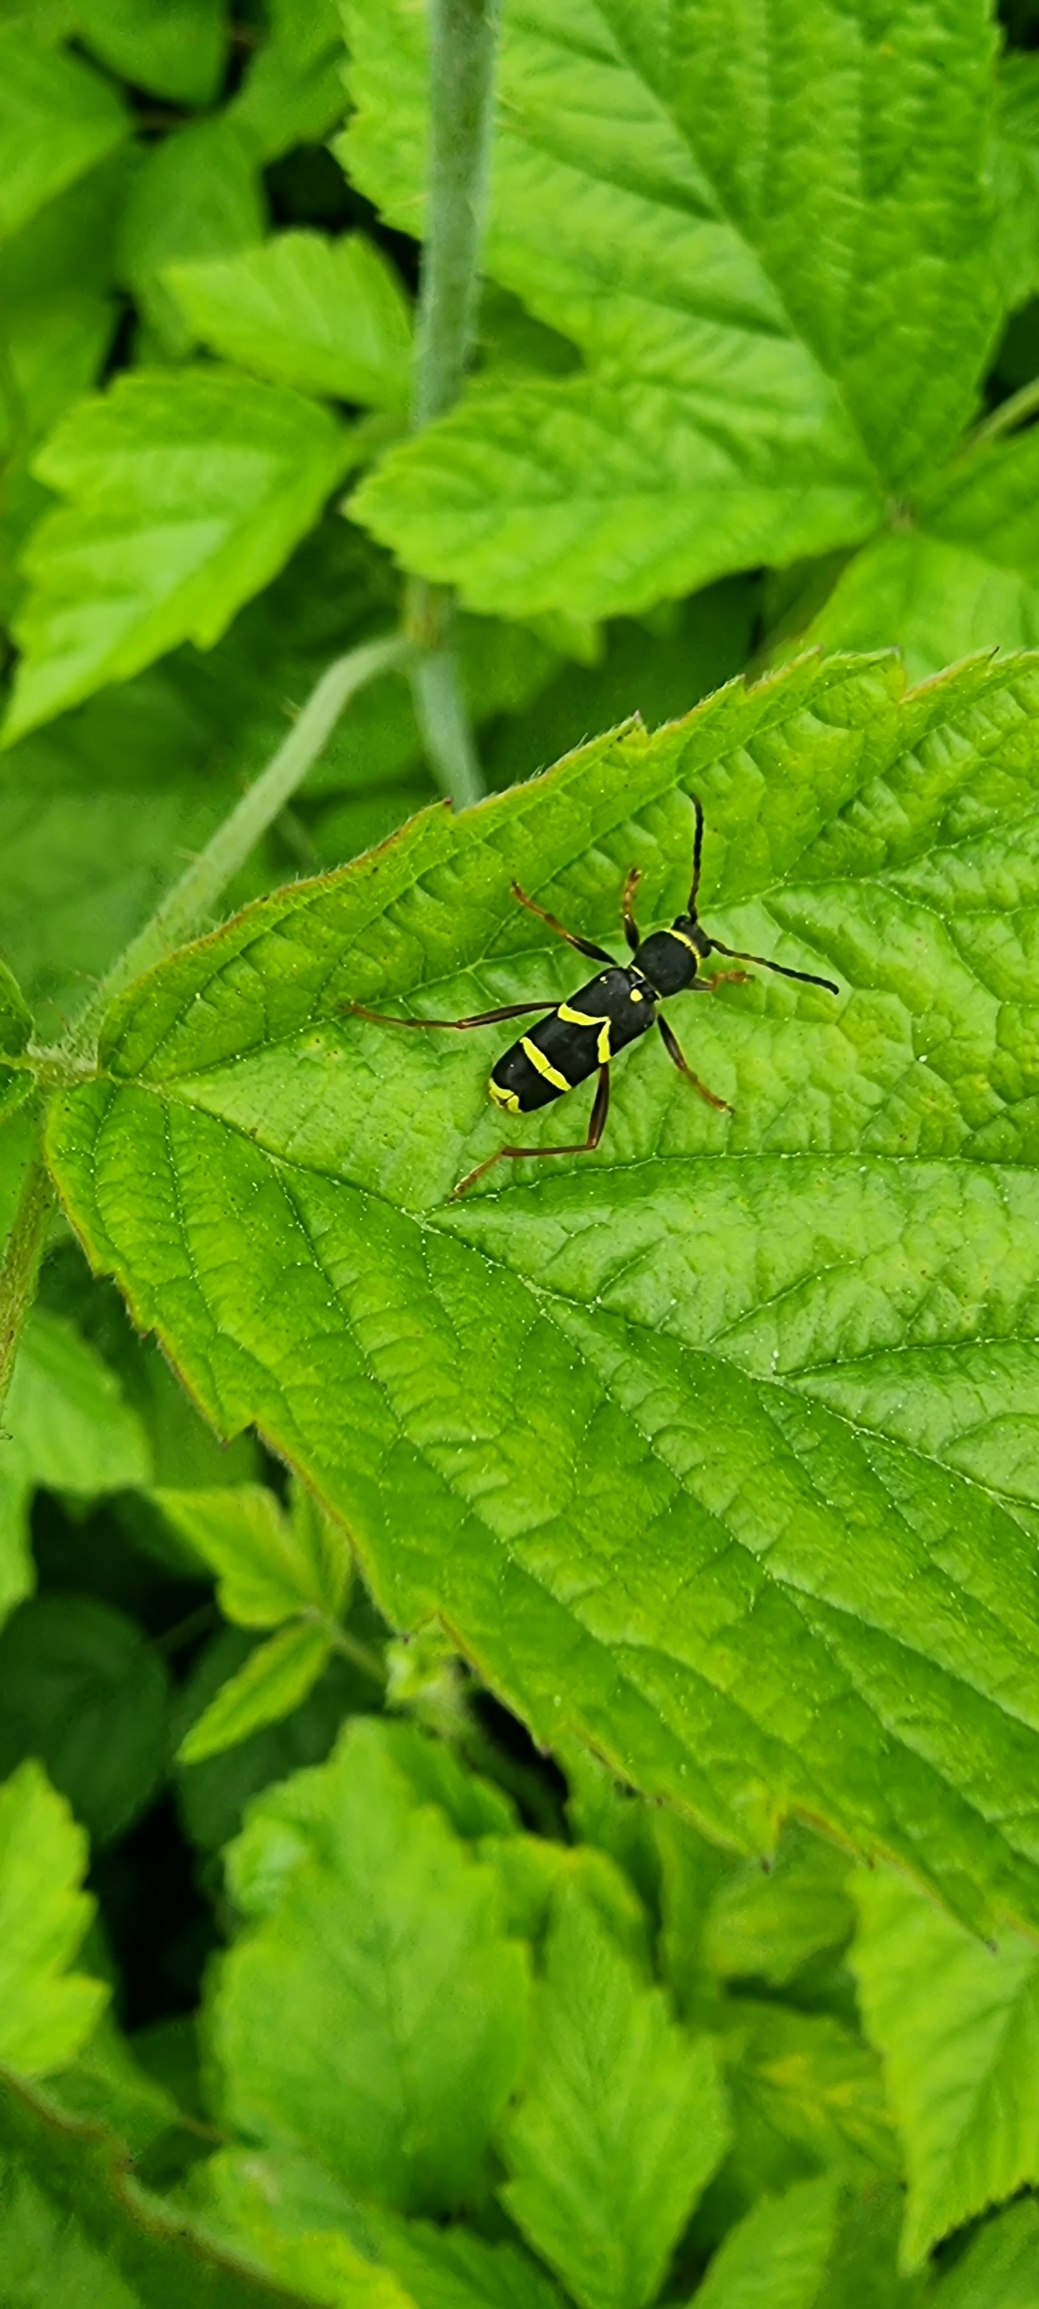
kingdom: Animalia
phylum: Arthropoda
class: Insecta
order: Coleoptera
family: Cerambycidae
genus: Clytus
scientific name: Clytus arietis
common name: Lille hvepsebuk
